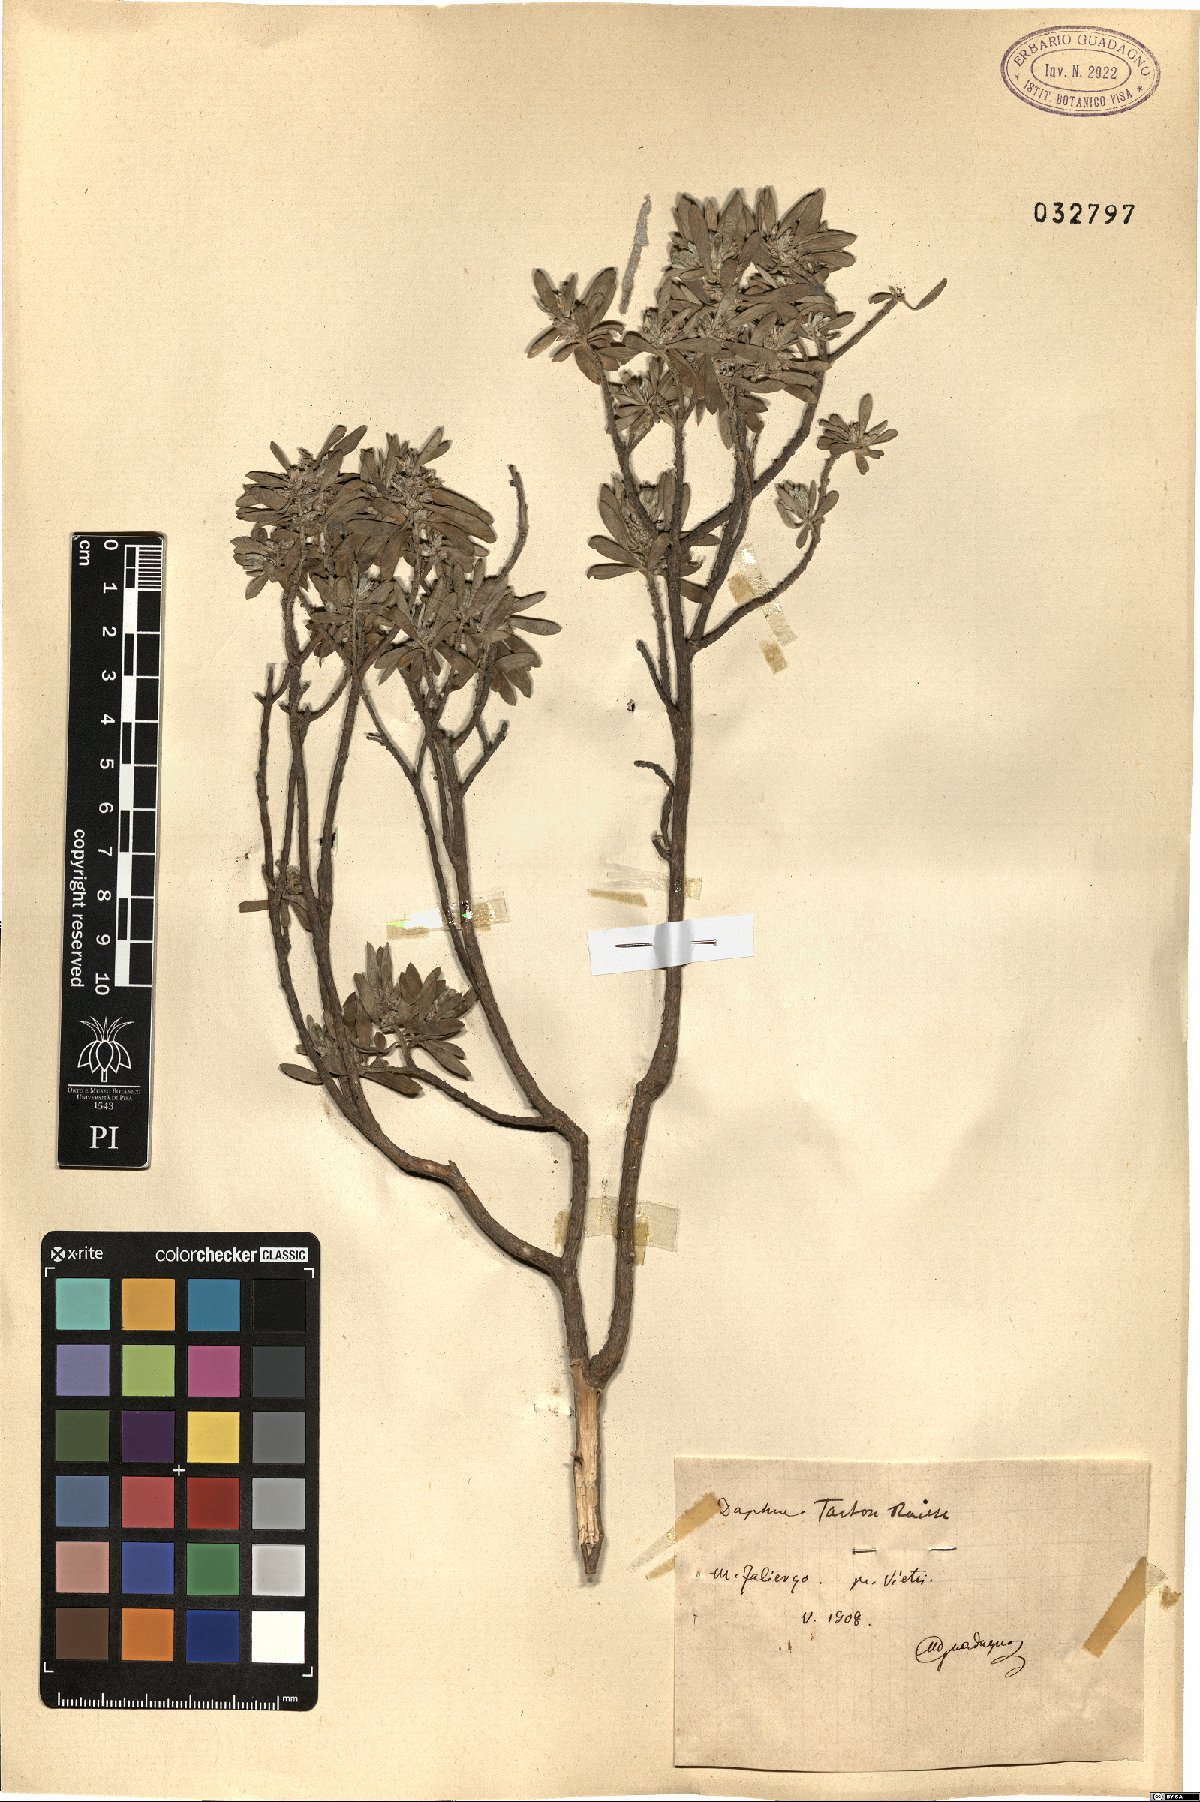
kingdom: Plantae
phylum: Tracheophyta
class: Magnoliopsida
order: Malvales
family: Thymelaeaceae
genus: Thymelaea
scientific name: Thymelaea tartonraira
